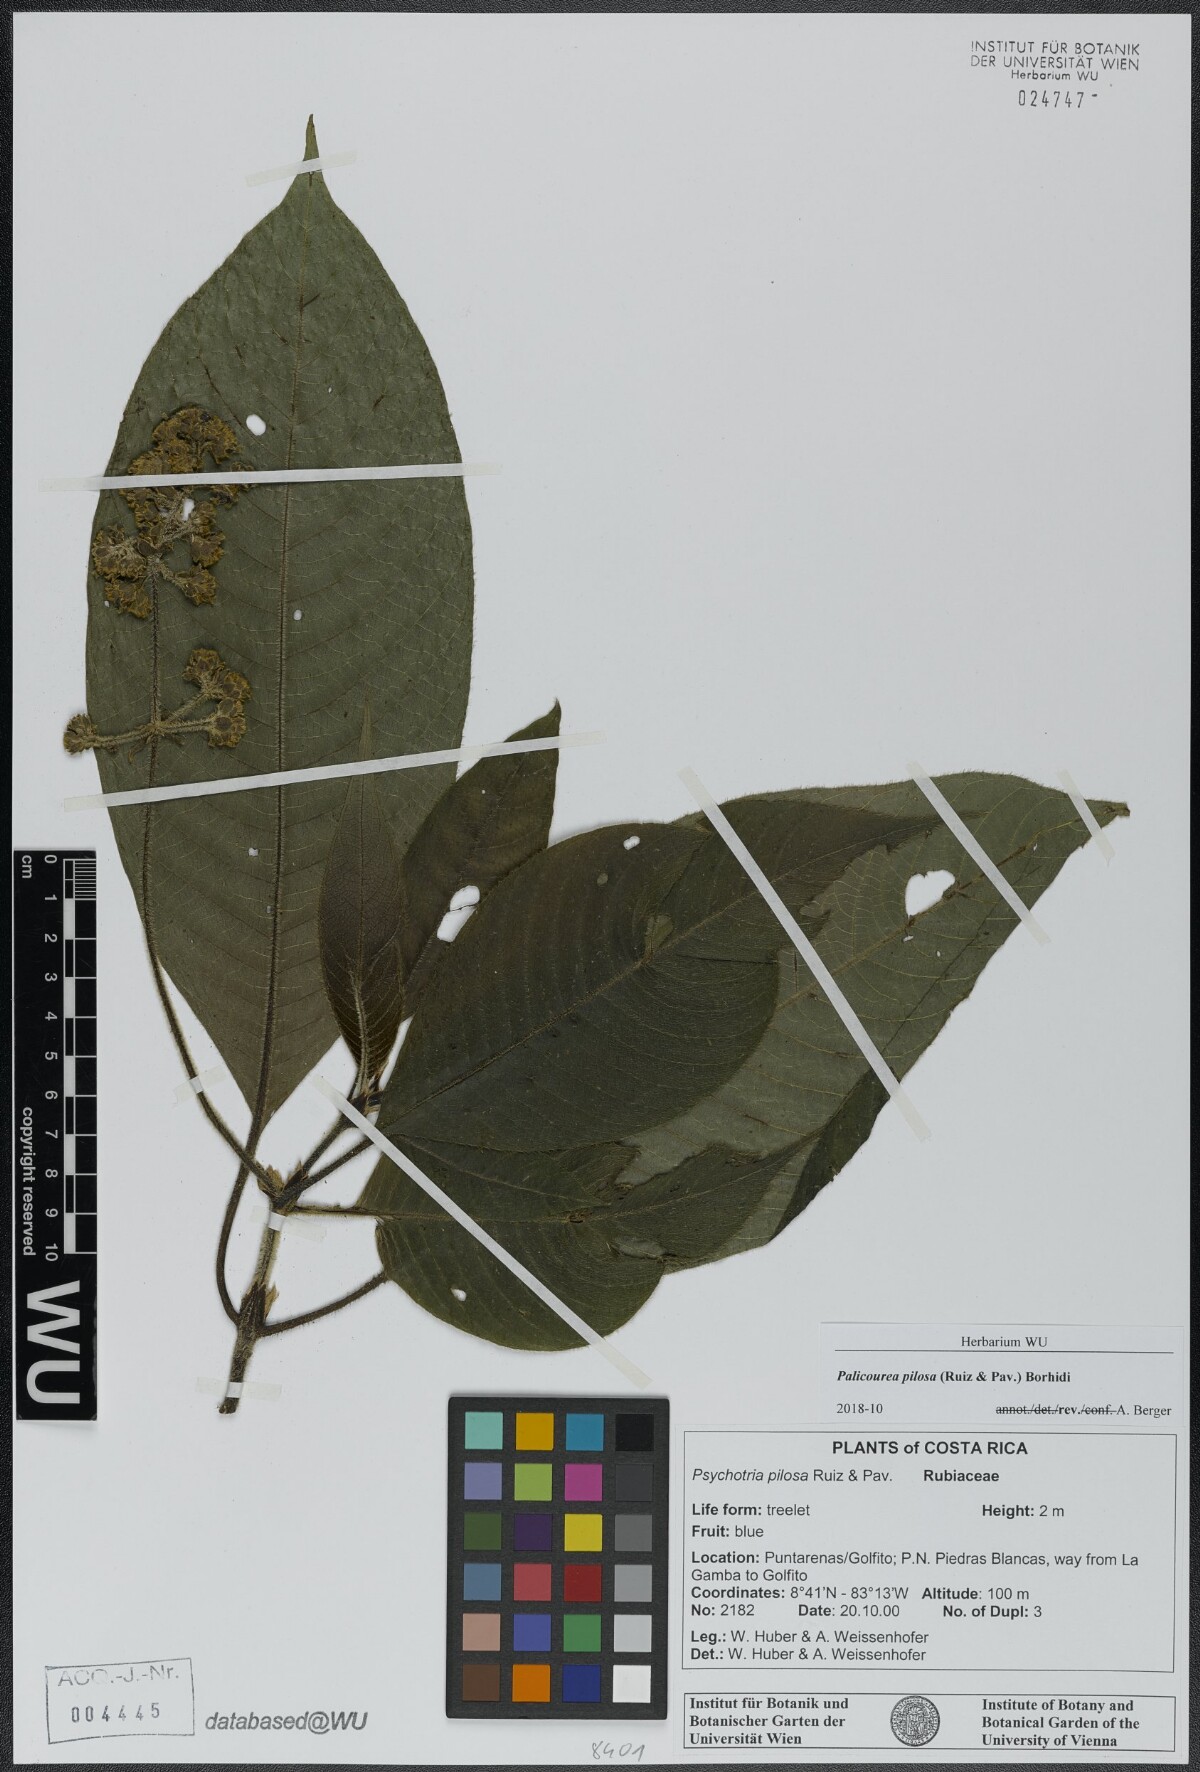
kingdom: Plantae
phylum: Tracheophyta
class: Magnoliopsida
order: Gentianales
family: Rubiaceae
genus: Palicourea
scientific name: Palicourea pilosa
